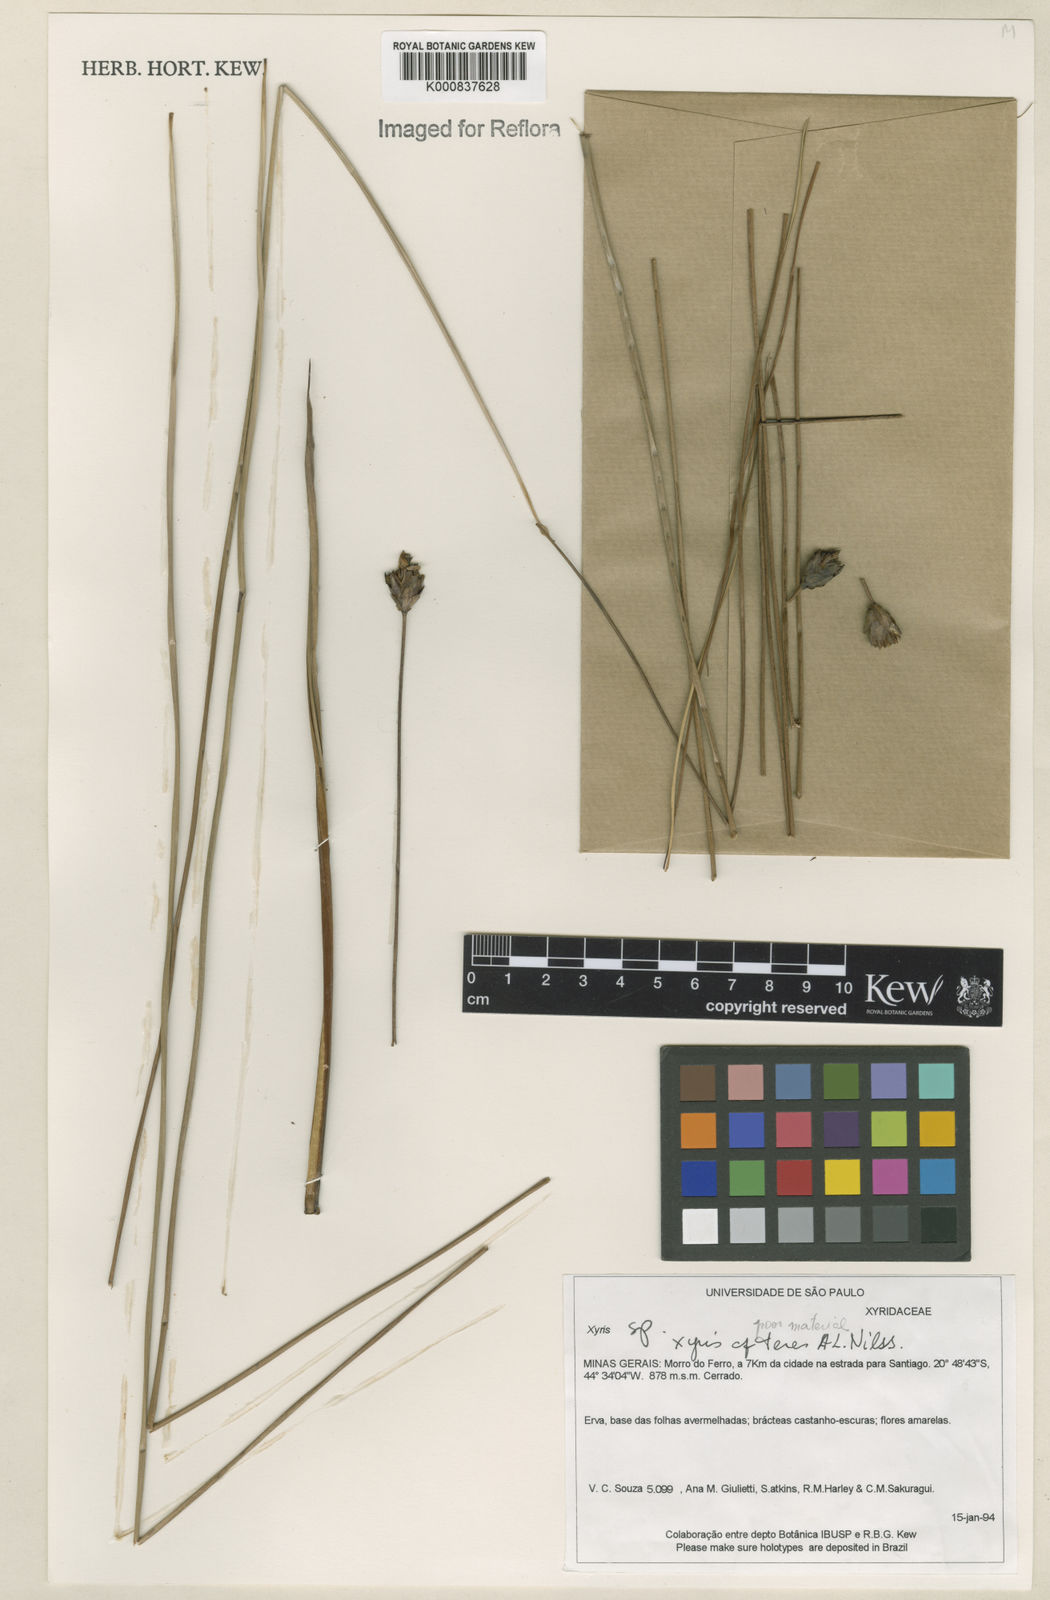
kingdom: Plantae
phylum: Tracheophyta
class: Liliopsida
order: Poales
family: Xyridaceae
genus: Xyris
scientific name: Xyris teres
